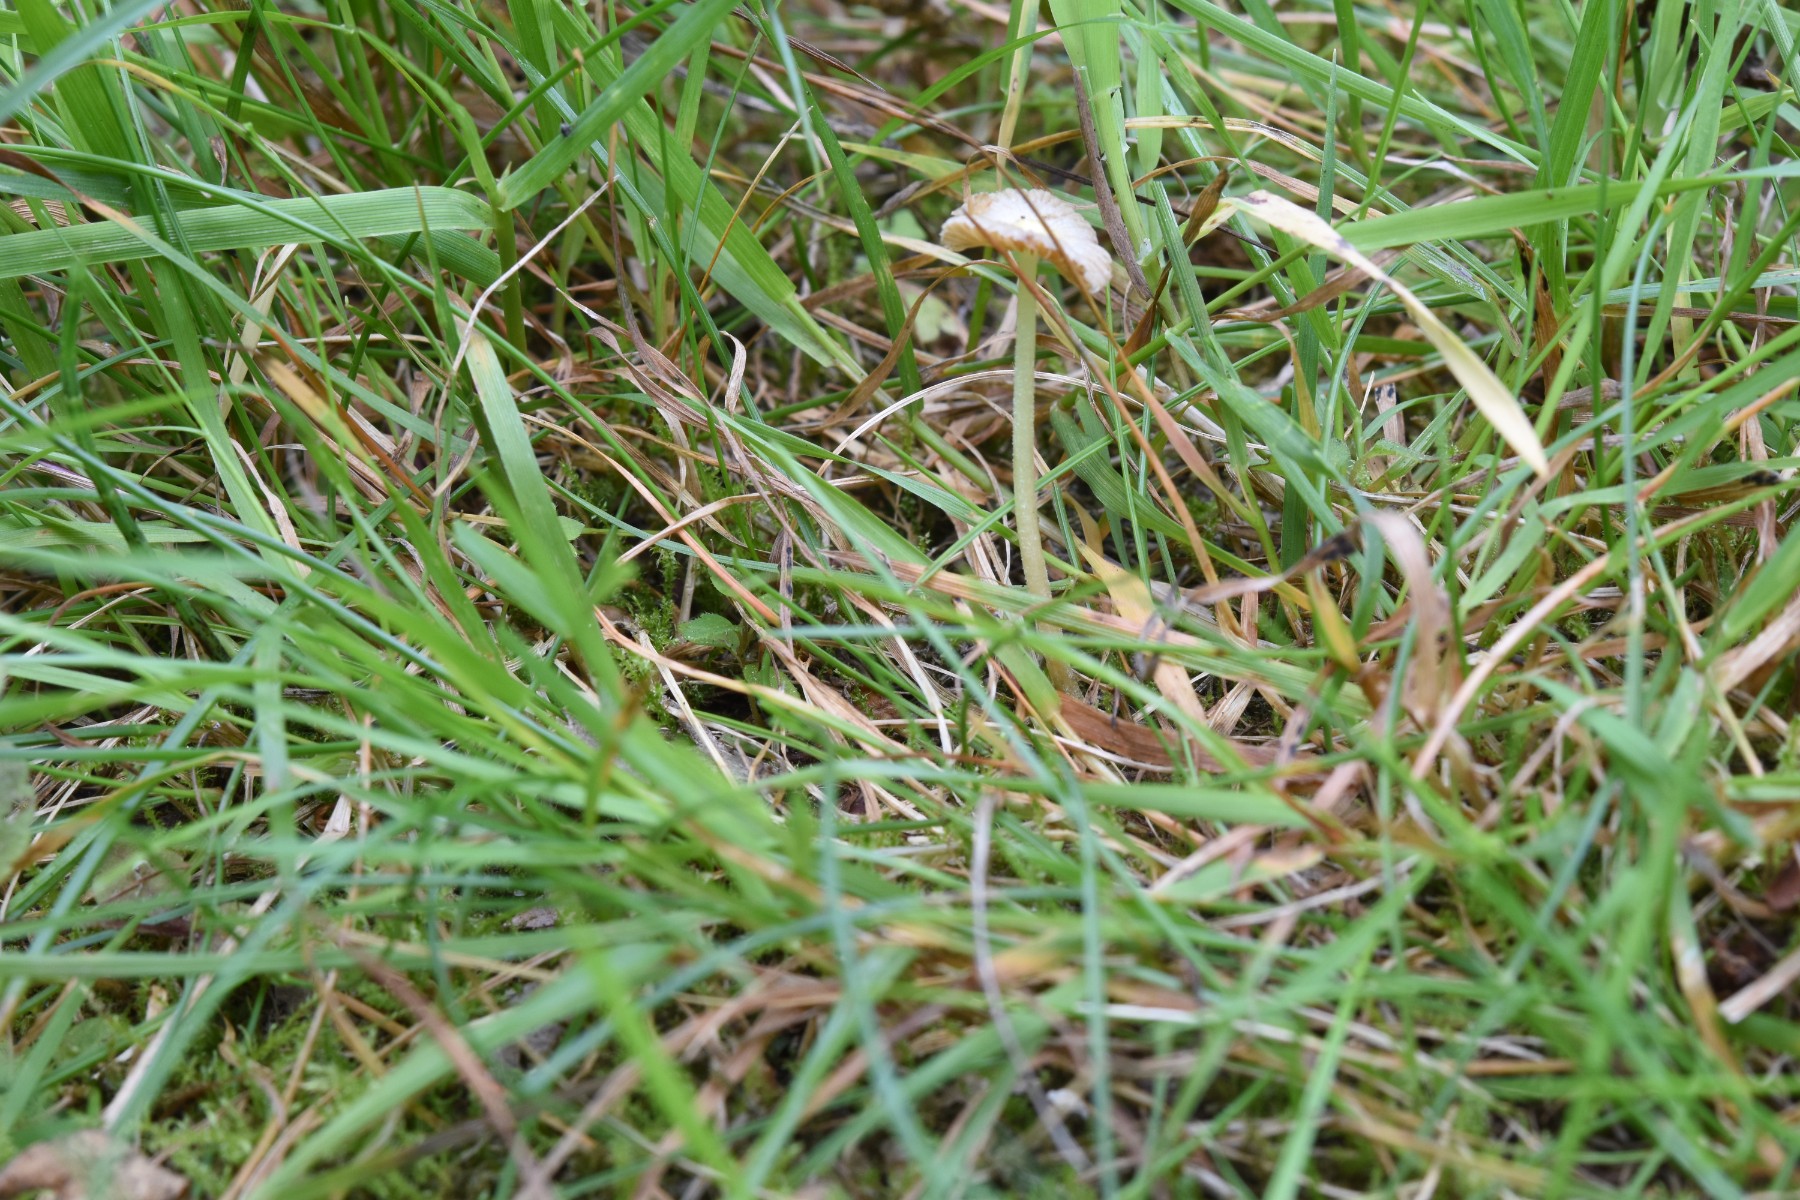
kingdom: Fungi
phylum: Basidiomycota
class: Agaricomycetes
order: Agaricales
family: Bolbitiaceae
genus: Bolbitius
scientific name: Bolbitius titubans
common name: almindelig gulhat
